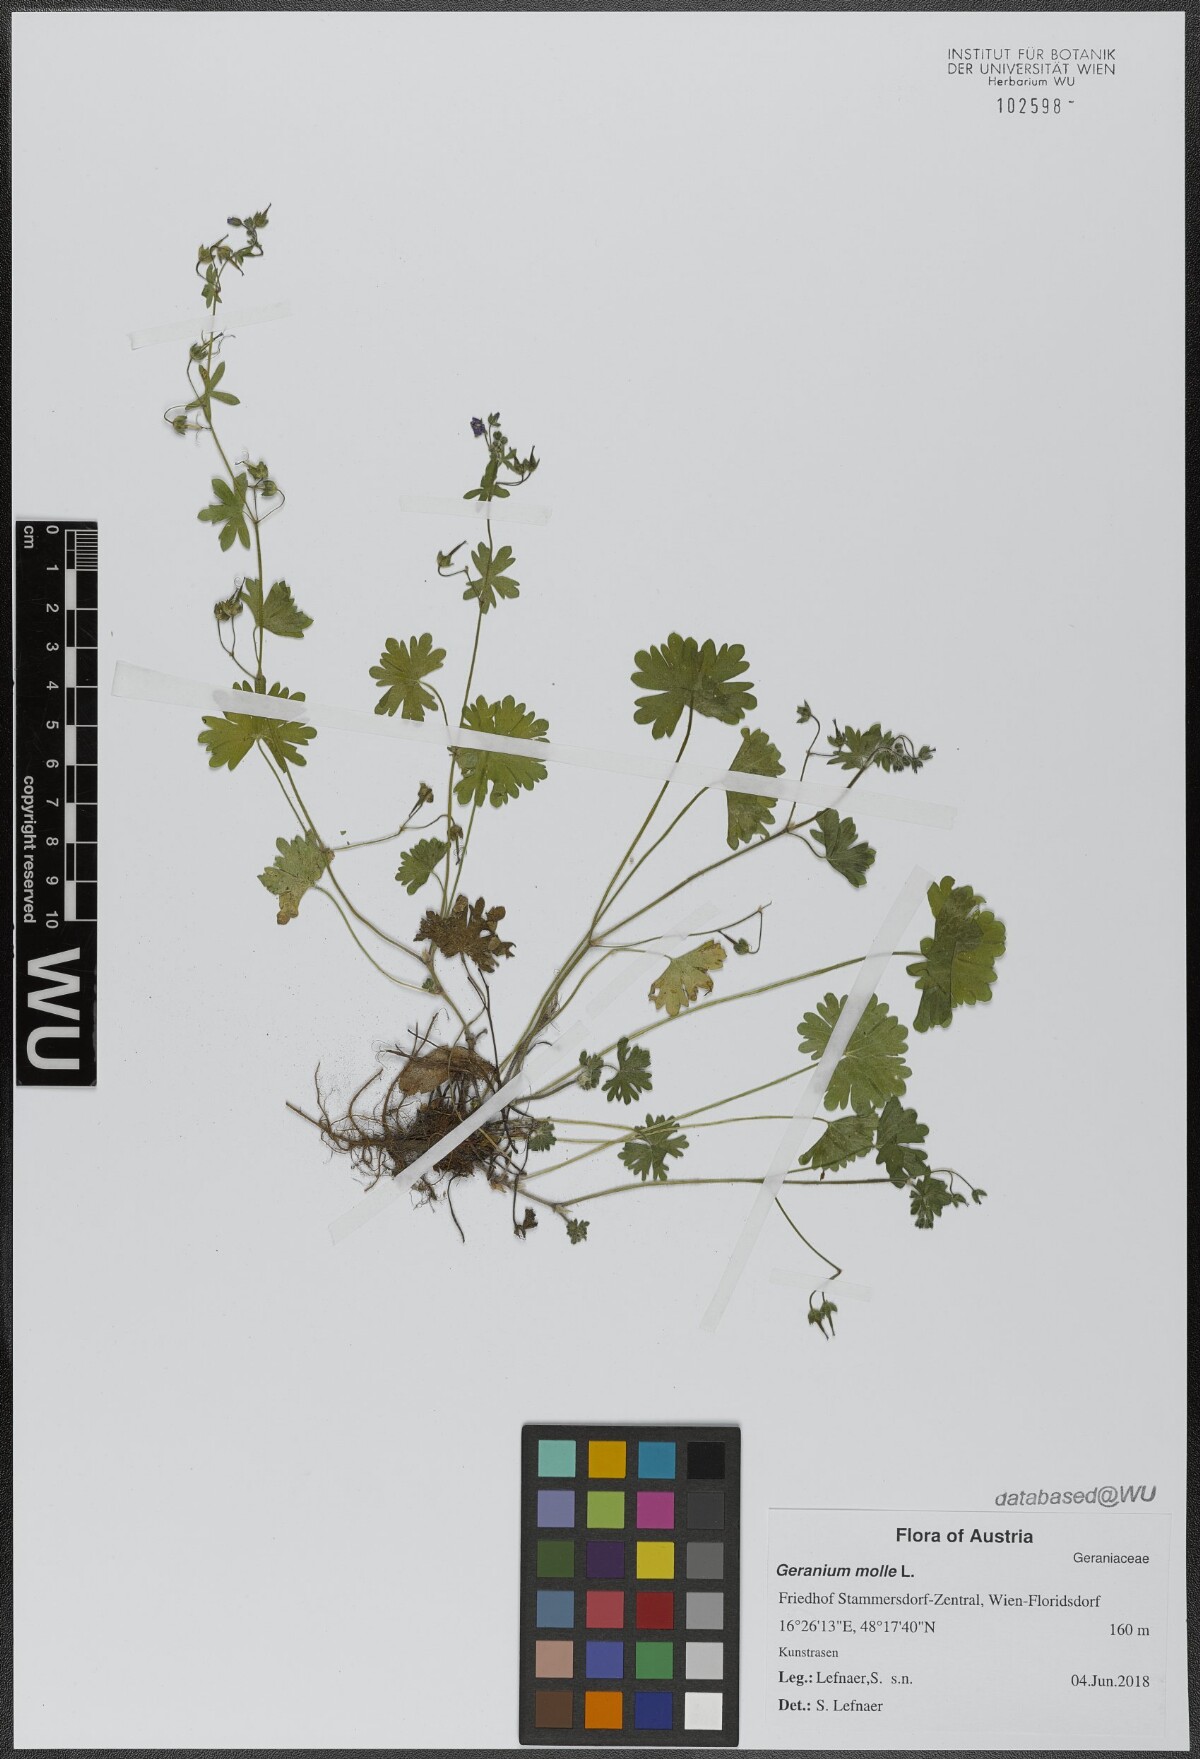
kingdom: Plantae
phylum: Tracheophyta
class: Magnoliopsida
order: Geraniales
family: Geraniaceae
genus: Geranium
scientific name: Geranium molle
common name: Dove's-foot crane's-bill
